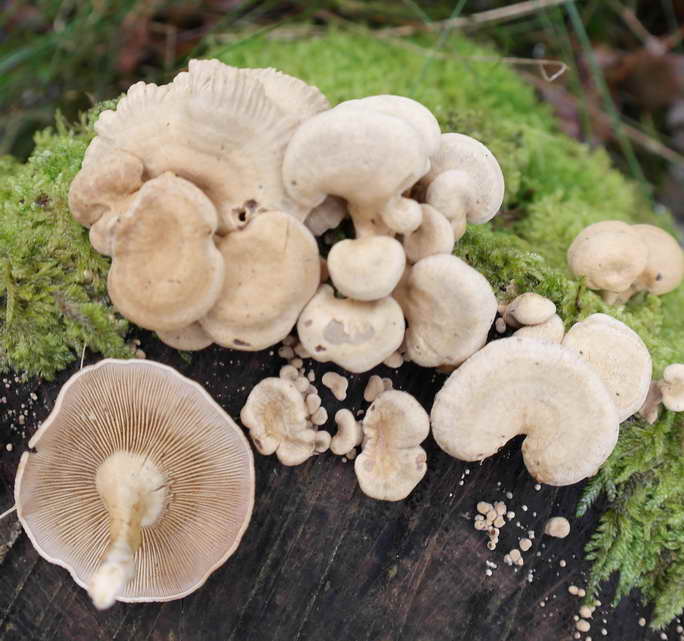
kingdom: Fungi
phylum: Basidiomycota
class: Agaricomycetes
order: Agaricales
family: Mycenaceae
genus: Panellus
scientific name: Panellus stipticus
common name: kliddet epaulethat
